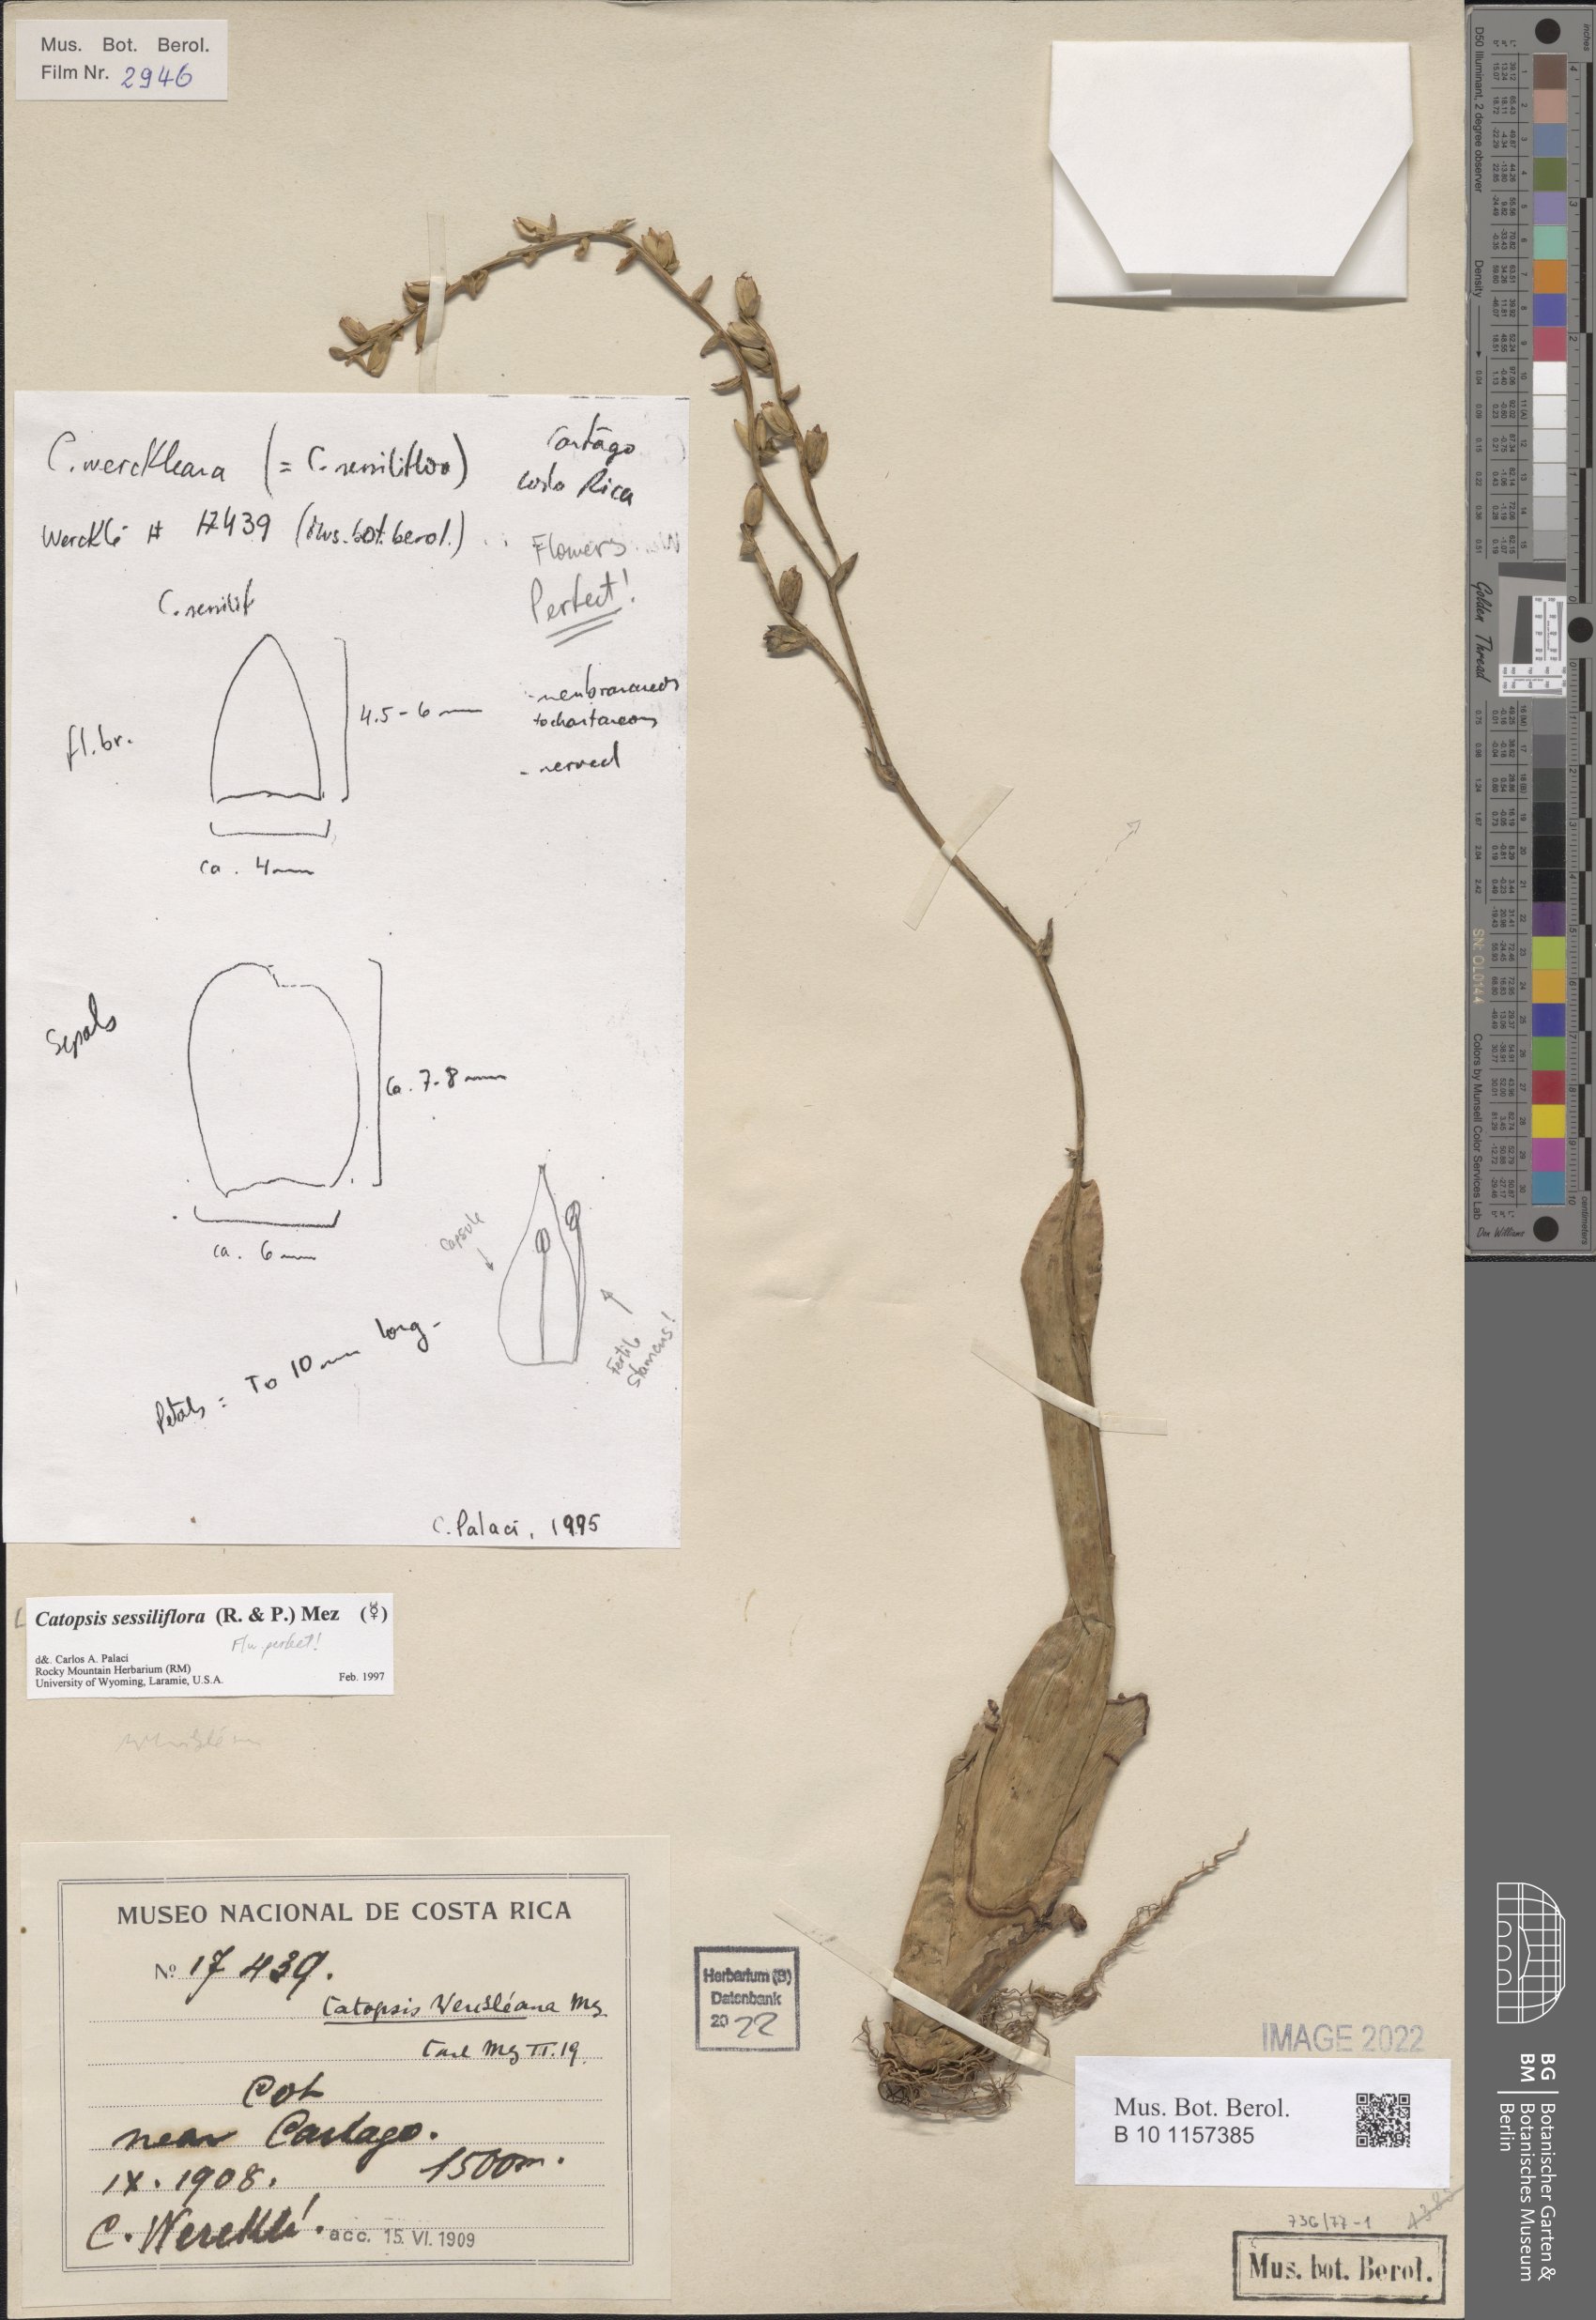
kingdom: Plantae
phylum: Tracheophyta
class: Liliopsida
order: Poales
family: Bromeliaceae
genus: Catopsis
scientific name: Catopsis sessiliflora
